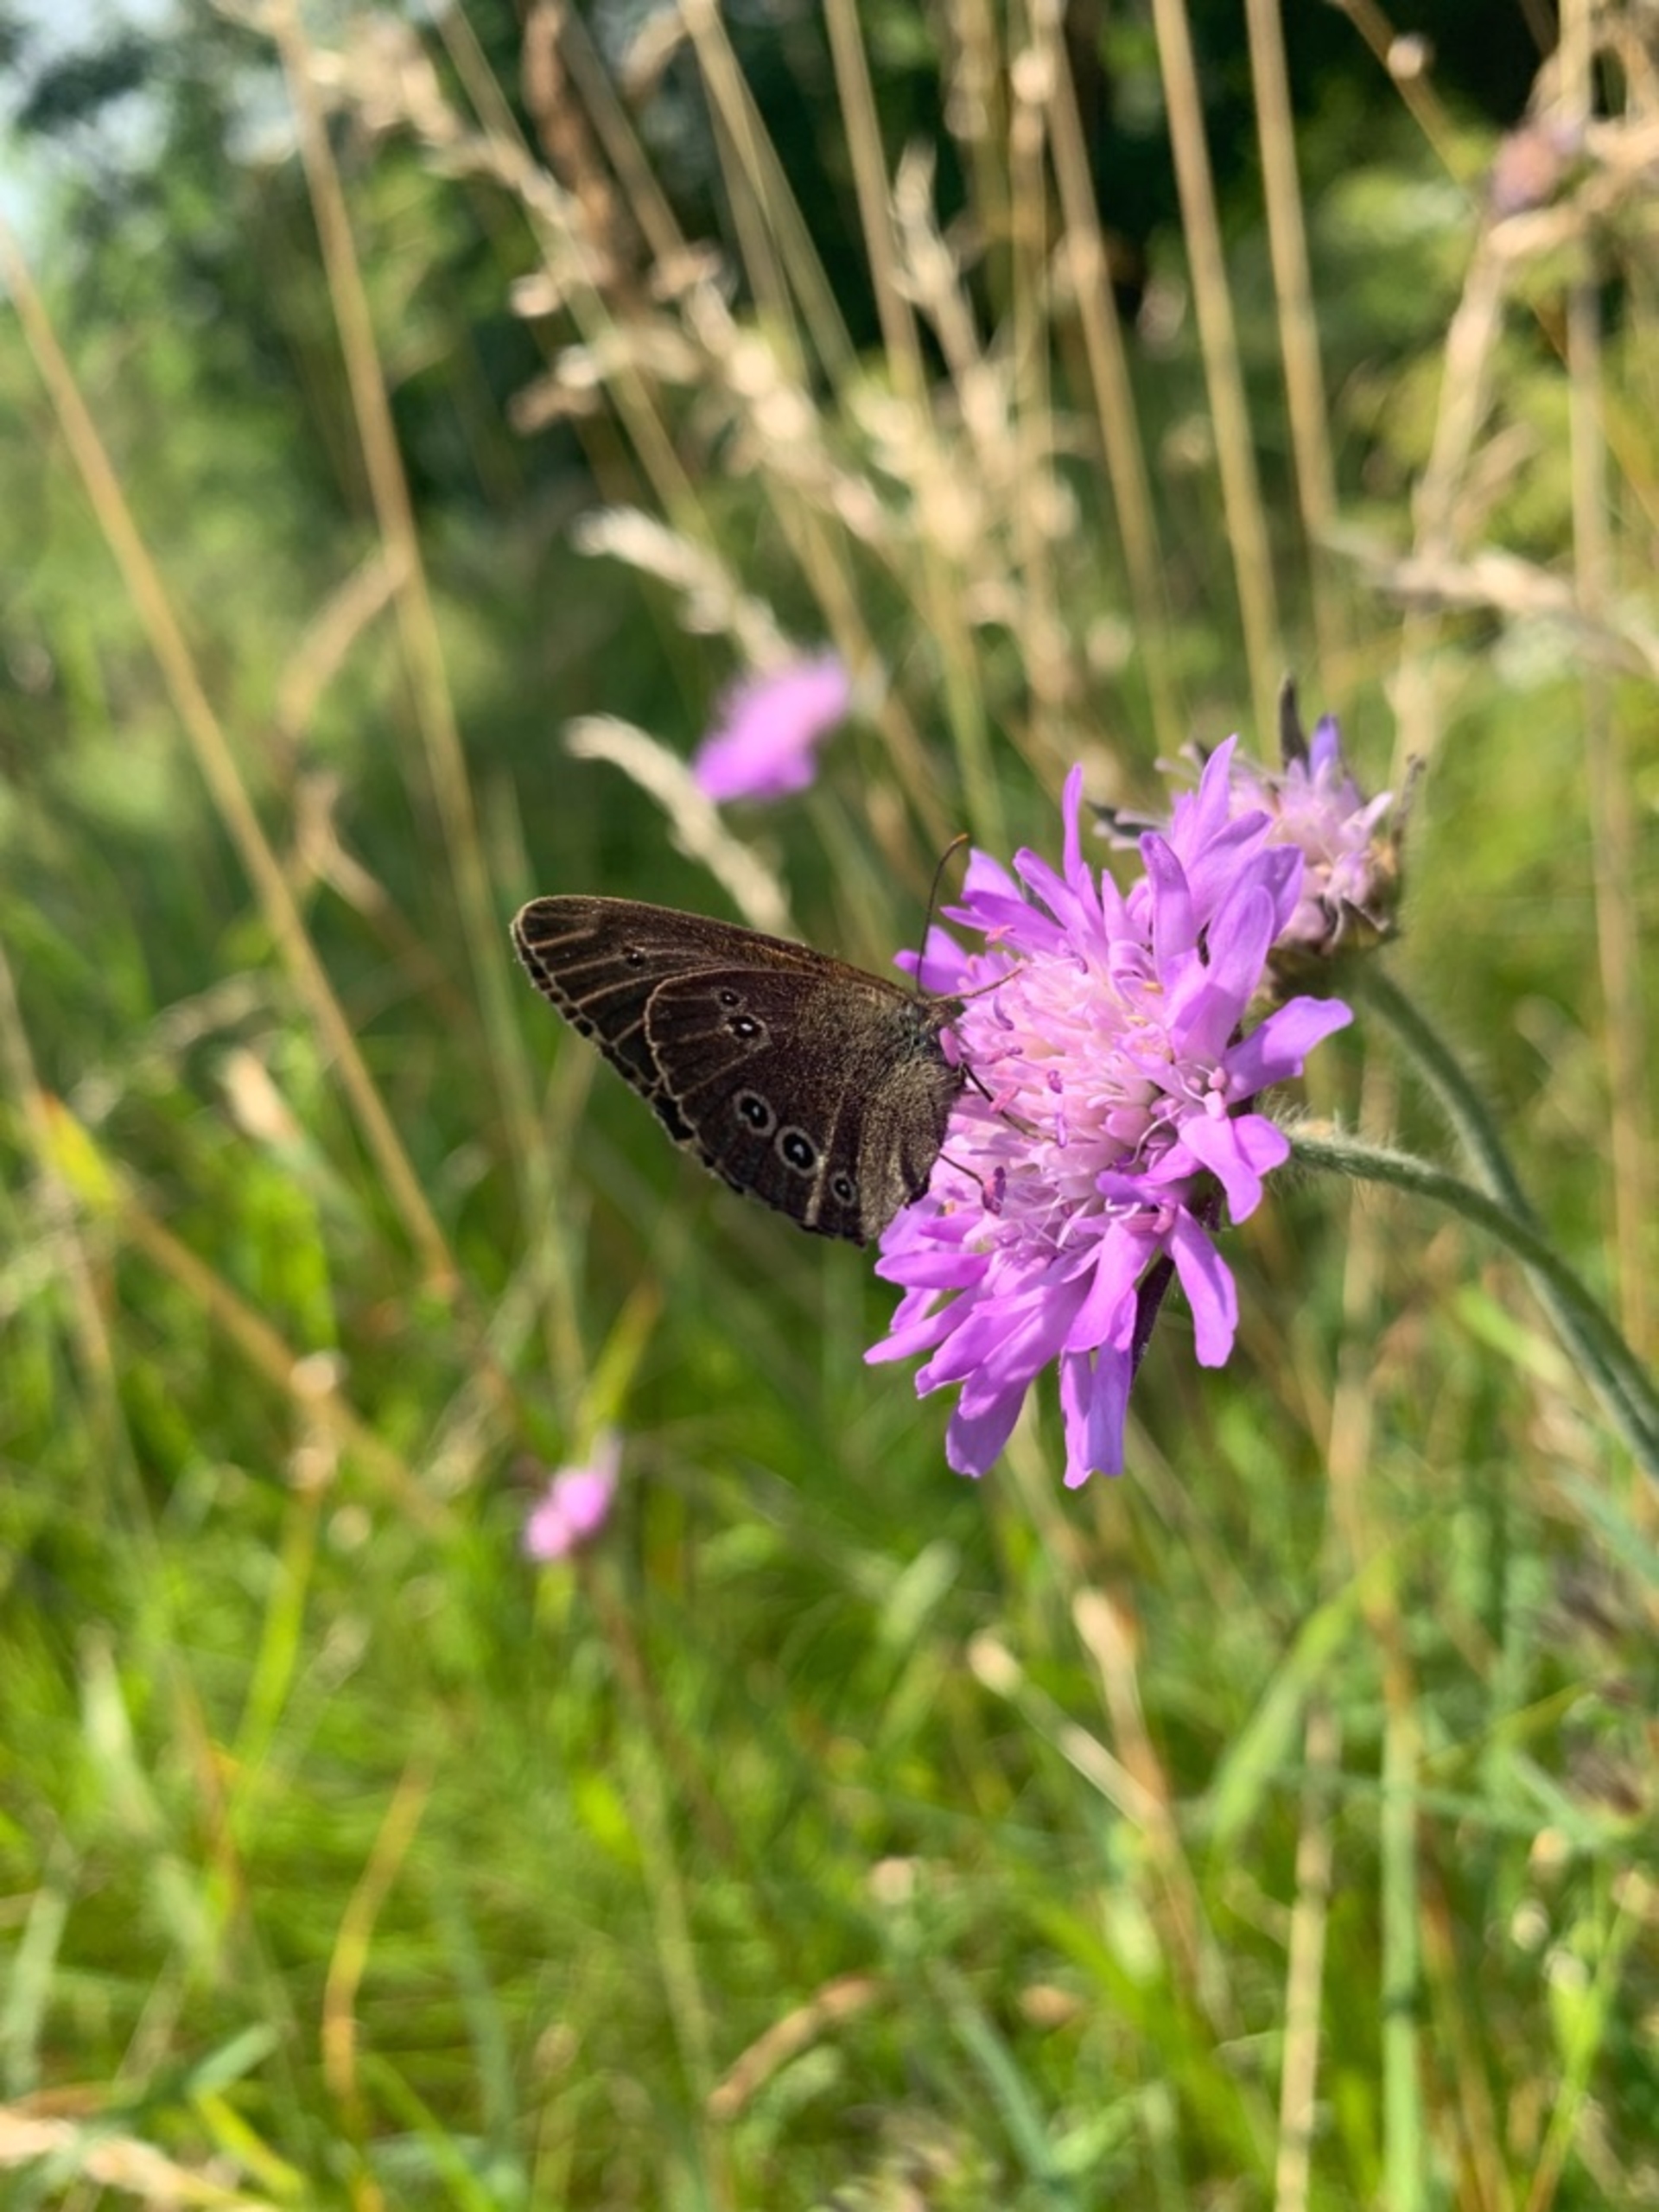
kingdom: Animalia
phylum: Arthropoda
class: Insecta
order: Lepidoptera
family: Nymphalidae
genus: Aphantopus
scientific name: Aphantopus hyperantus
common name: Engrandøje
